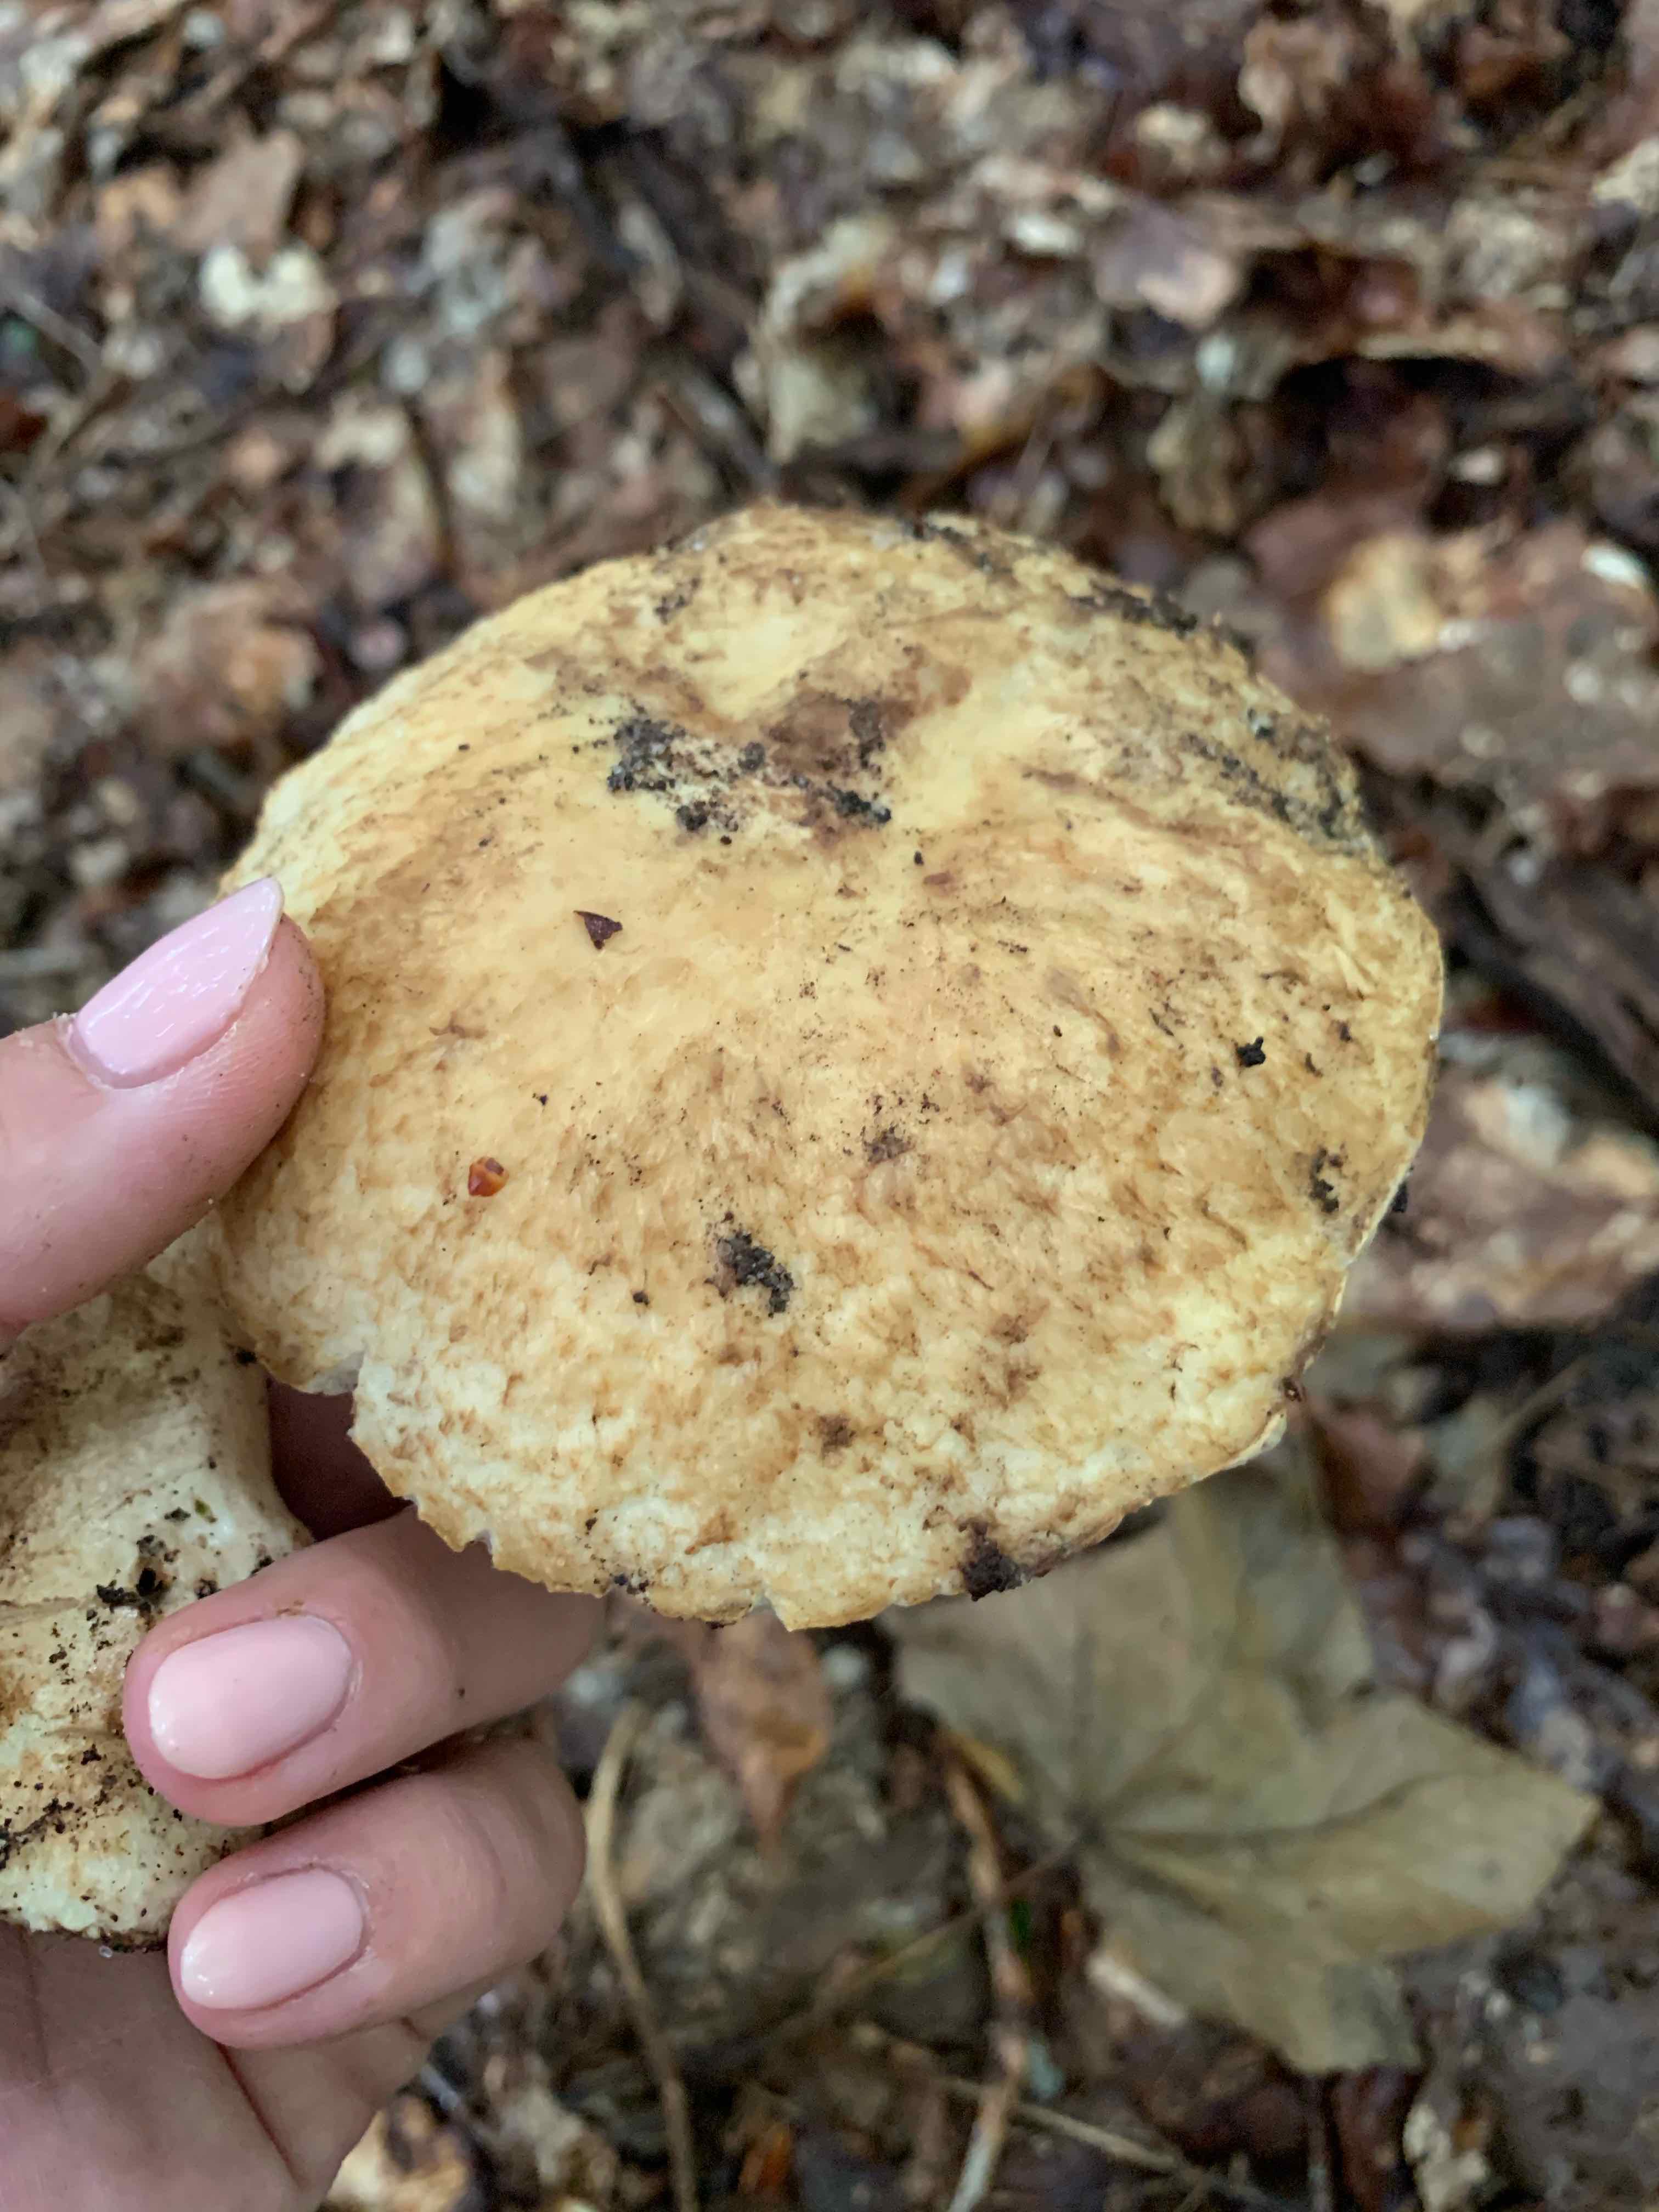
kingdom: Fungi
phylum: Basidiomycota
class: Agaricomycetes
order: Boletales
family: Gyroporaceae
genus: Gyroporus
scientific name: Gyroporus cyanescens
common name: blånende kammerrørhat
